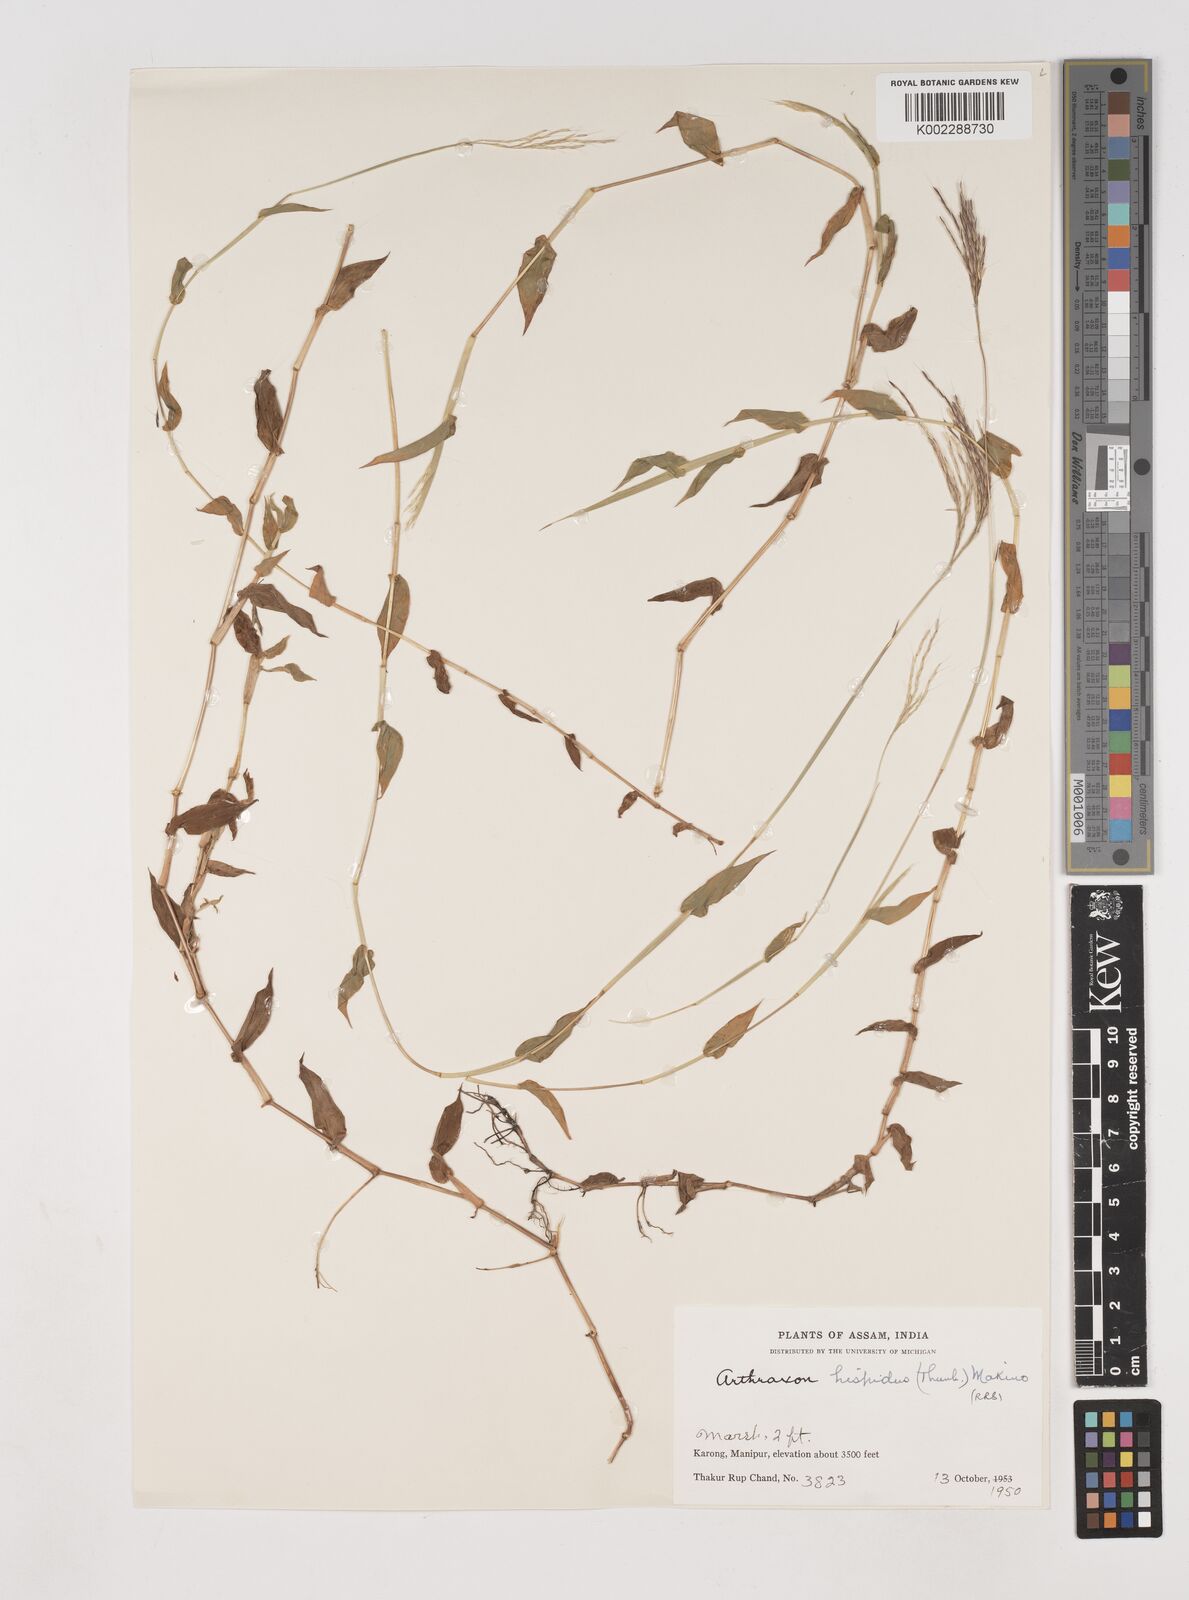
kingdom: Plantae
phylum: Tracheophyta
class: Liliopsida
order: Poales
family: Poaceae
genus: Arthraxon
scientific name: Arthraxon hispidus
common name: Small carpgrass
